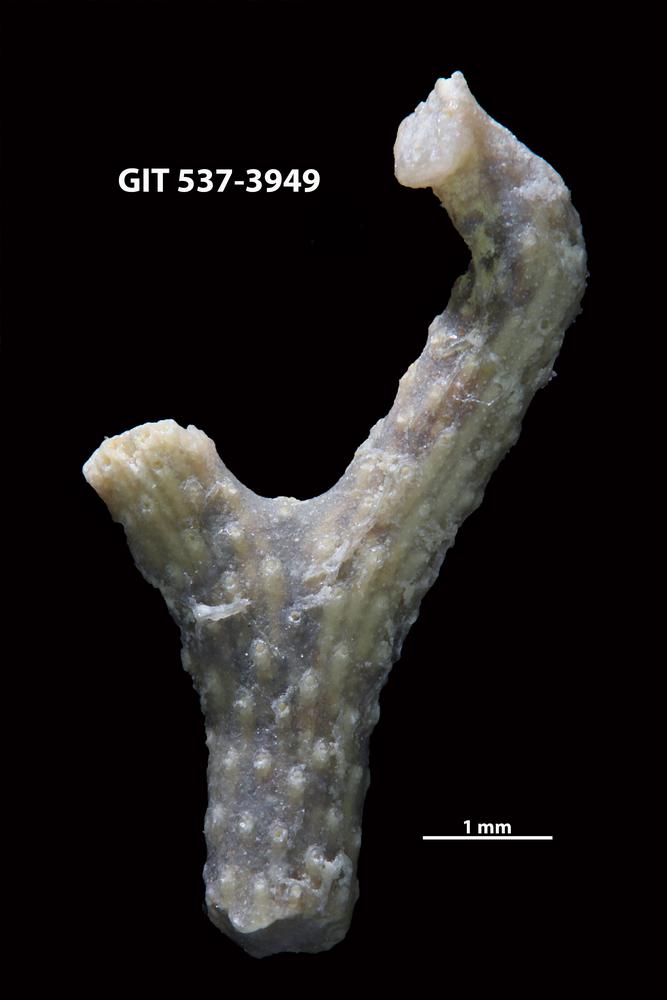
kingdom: Animalia
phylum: Bryozoa
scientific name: Bryozoa
